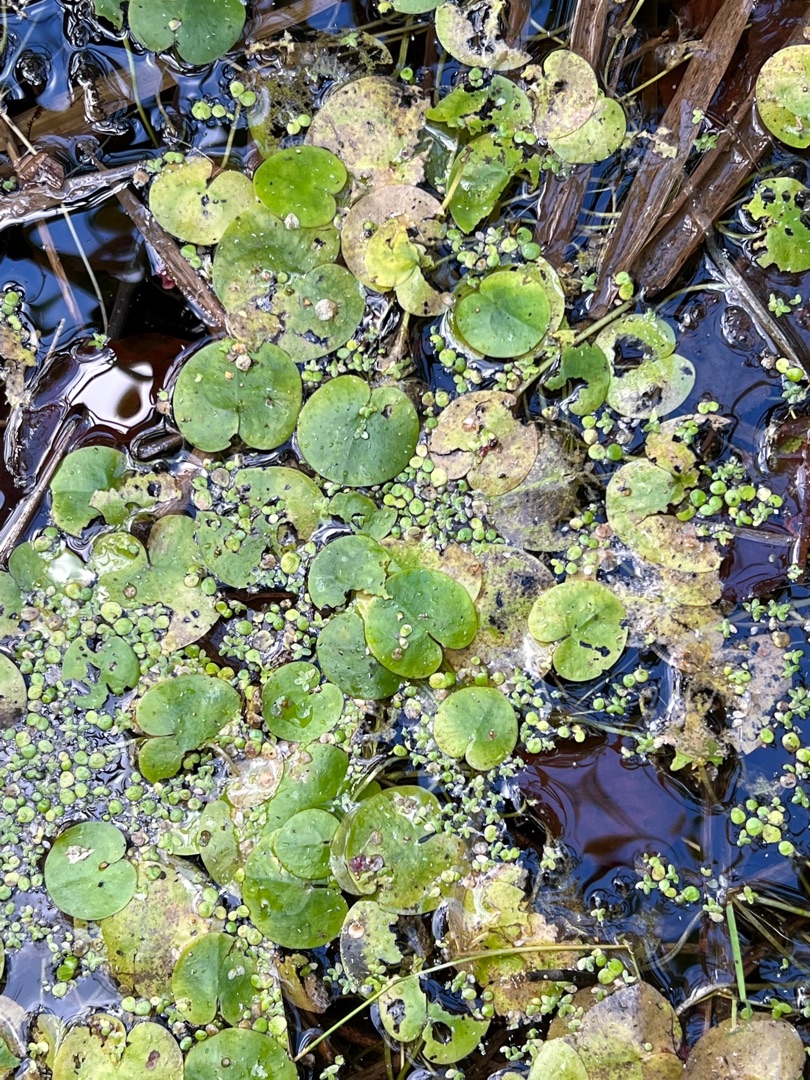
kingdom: Plantae
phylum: Tracheophyta
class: Liliopsida
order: Alismatales
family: Hydrocharitaceae
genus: Hydrocharis
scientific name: Hydrocharis morsus-ranae
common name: Frøbid
